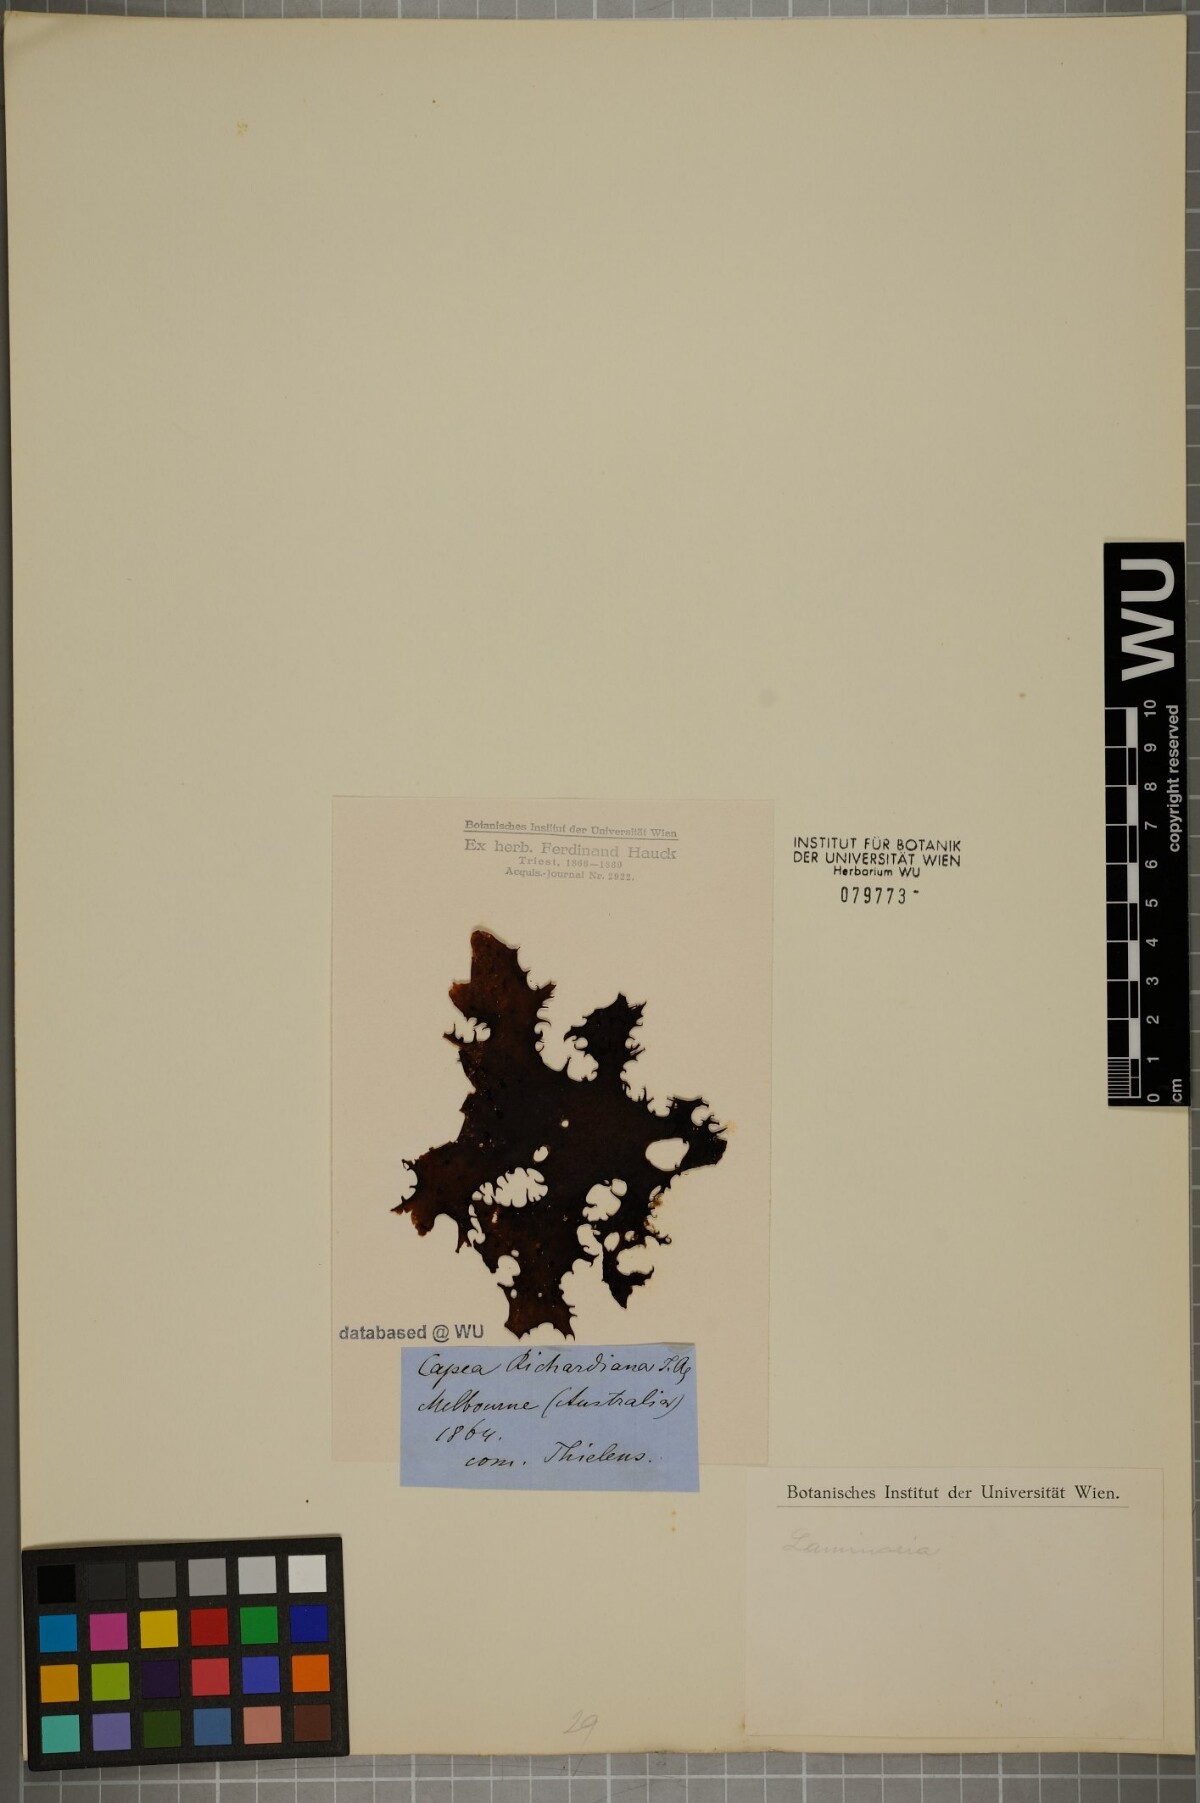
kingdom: Chromista
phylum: Ochrophyta
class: Phaeophyceae
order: Laminariales
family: Laminariaceae
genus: Laminaria
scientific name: Laminaria
